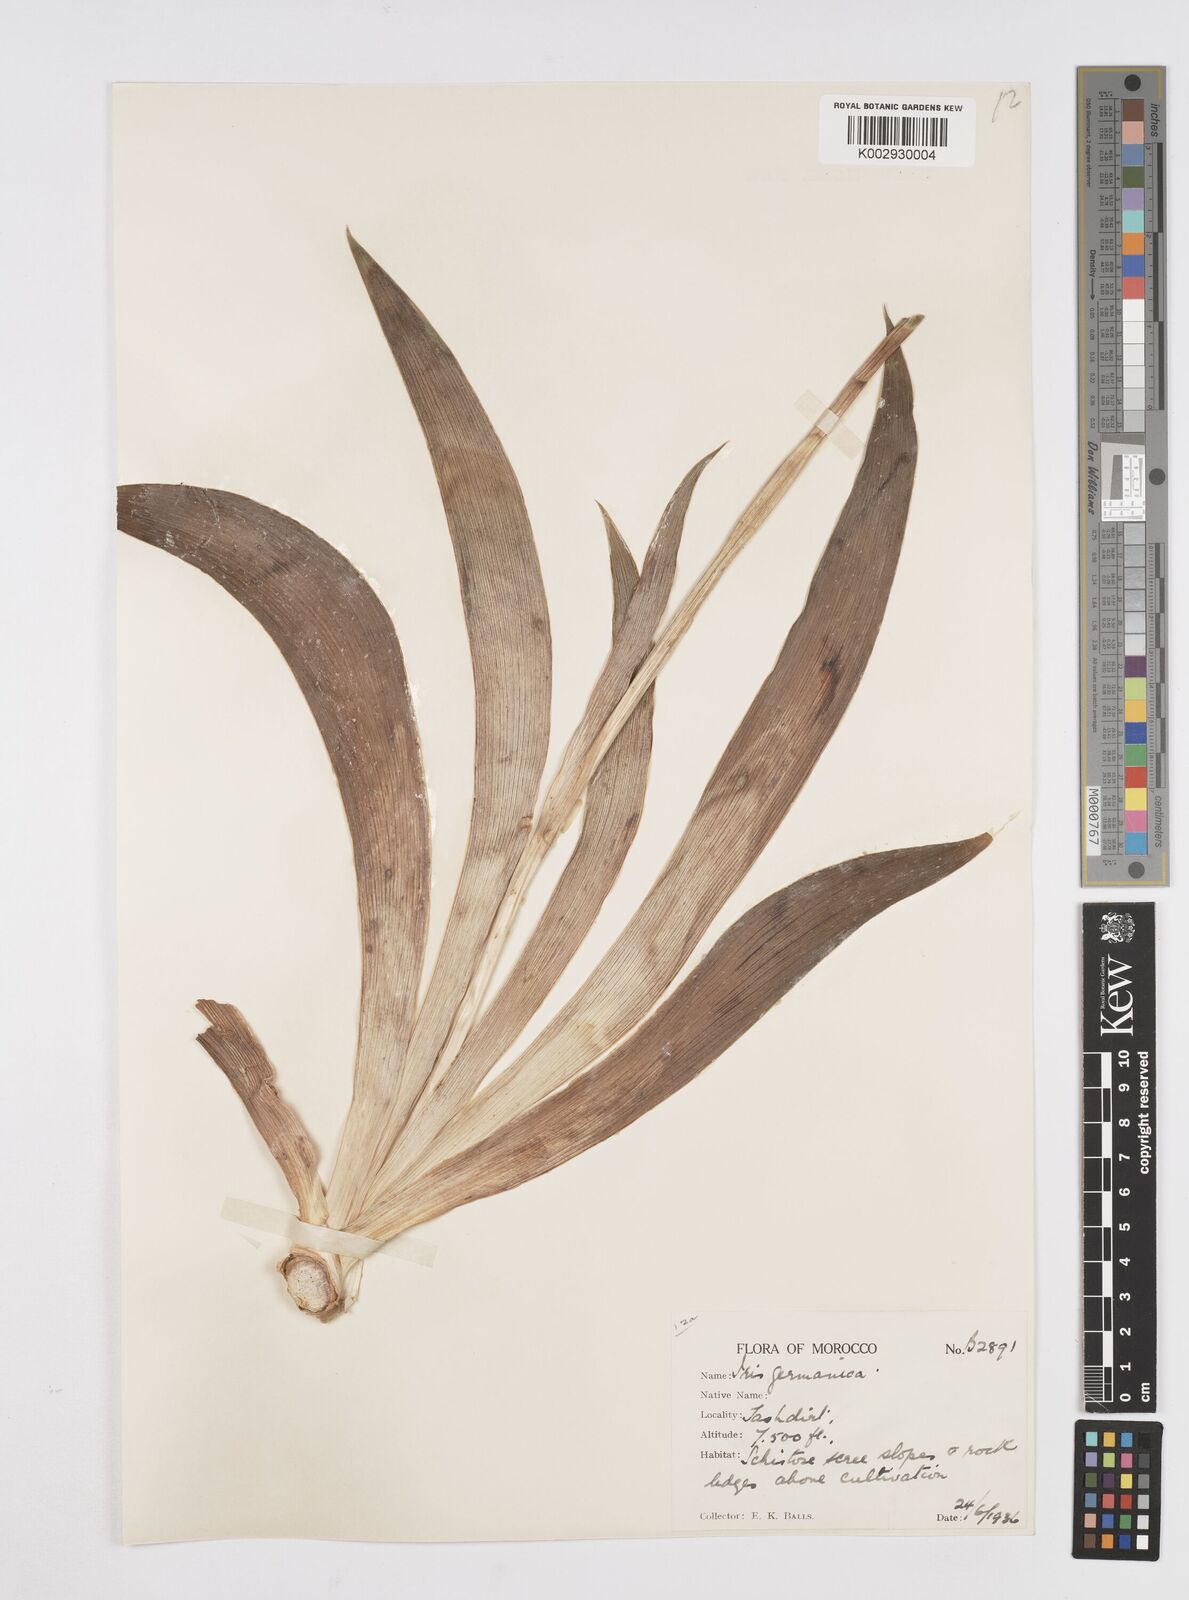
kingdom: Plantae
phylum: Tracheophyta
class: Liliopsida
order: Asparagales
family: Iridaceae
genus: Iris
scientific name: Iris germanica
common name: German iris
